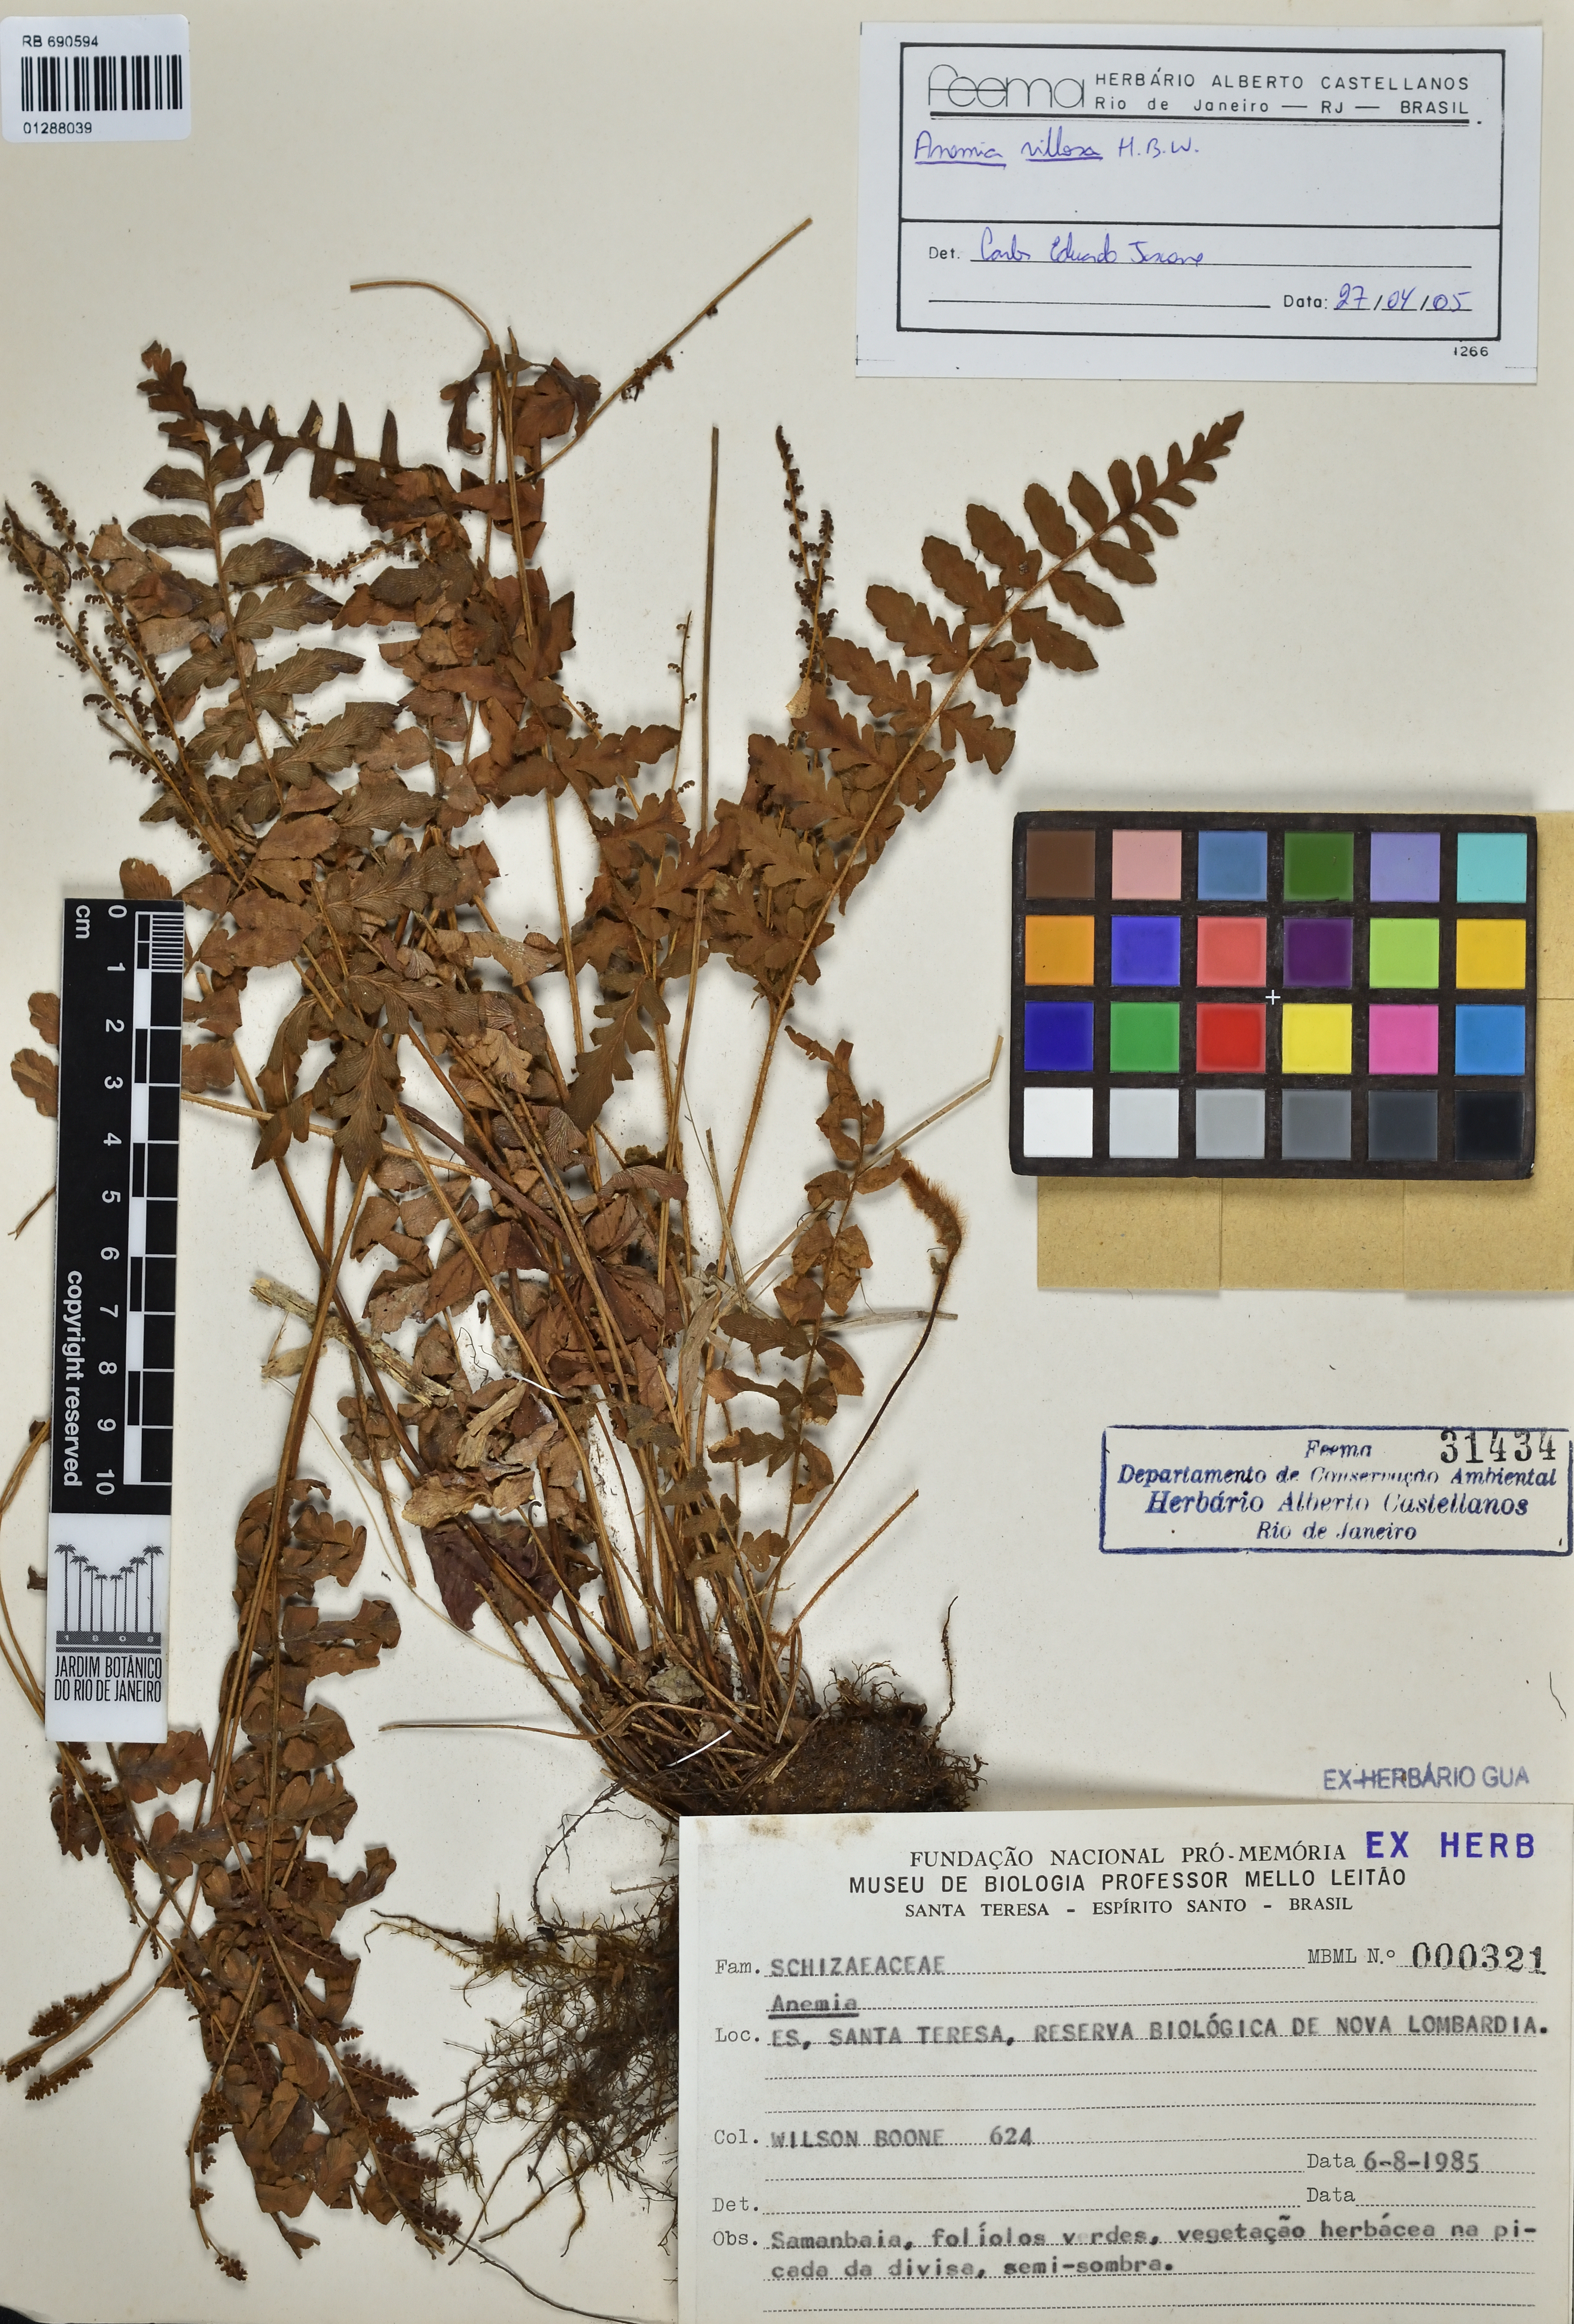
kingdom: Plantae
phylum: Tracheophyta
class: Polypodiopsida
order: Schizaeales
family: Anemiaceae
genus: Anemia
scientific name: Anemia villosa
